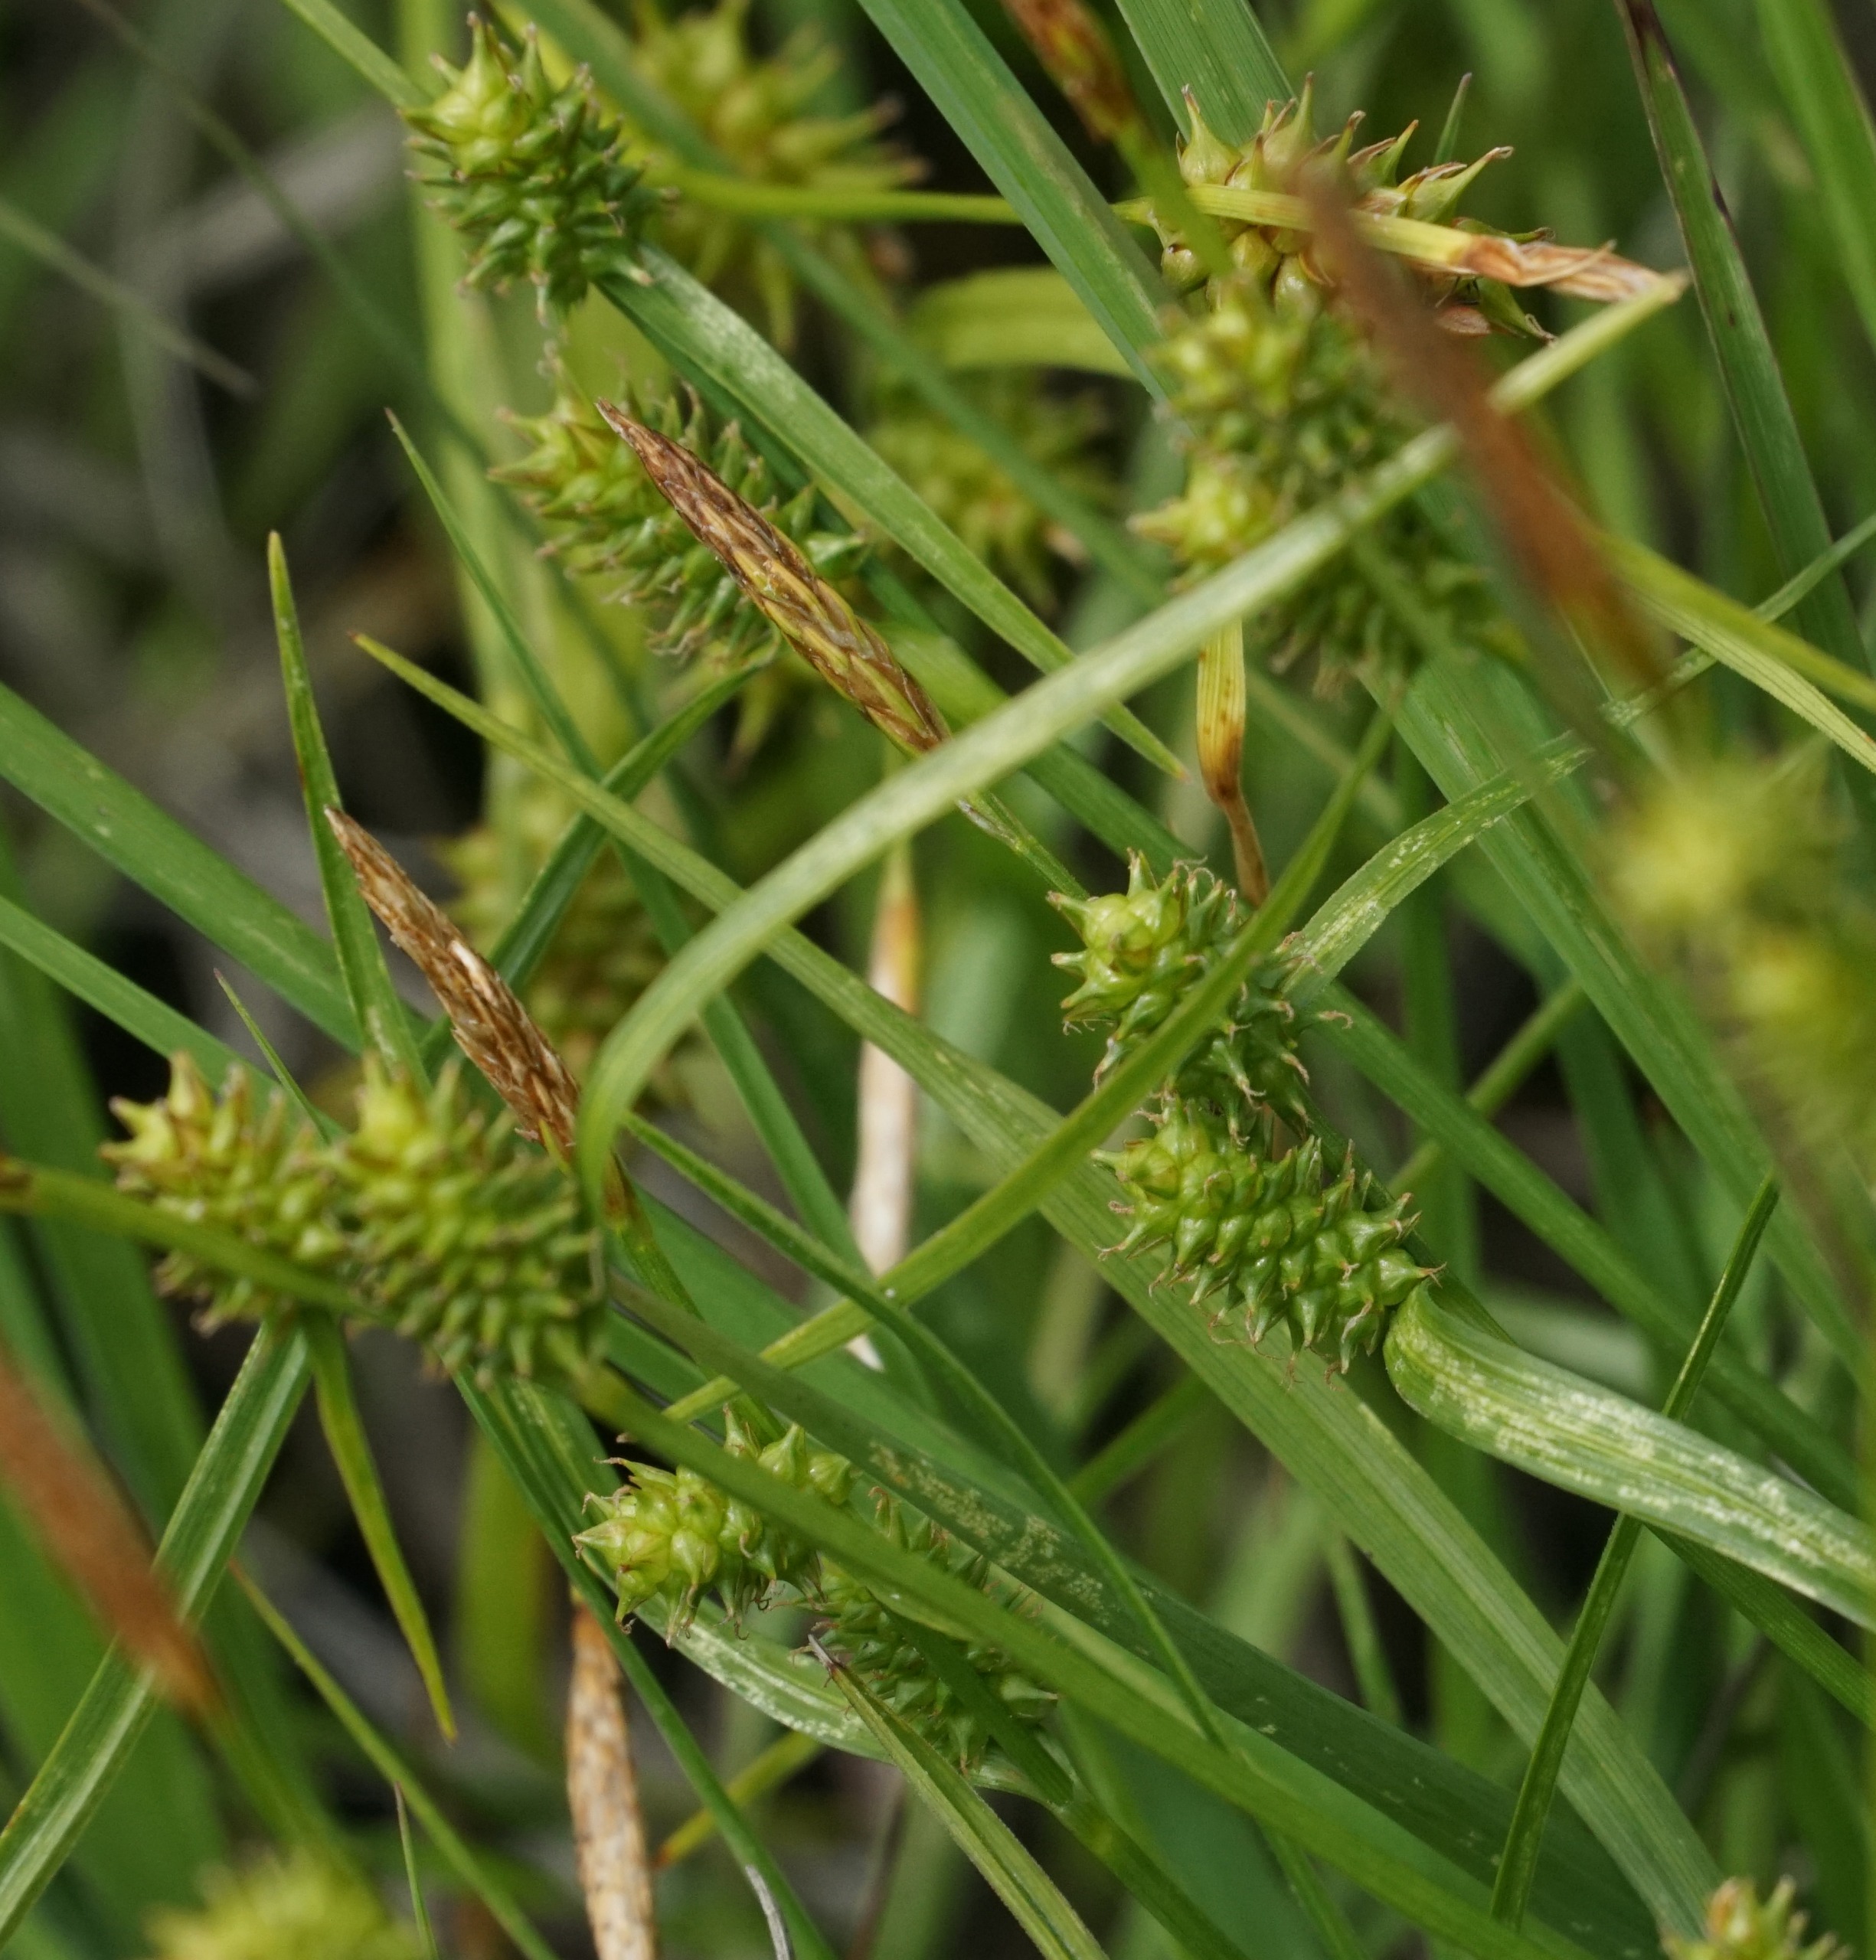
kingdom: Plantae
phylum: Tracheophyta
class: Liliopsida
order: Poales
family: Cyperaceae
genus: Carex
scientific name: Carex demissa
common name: Grøn star
